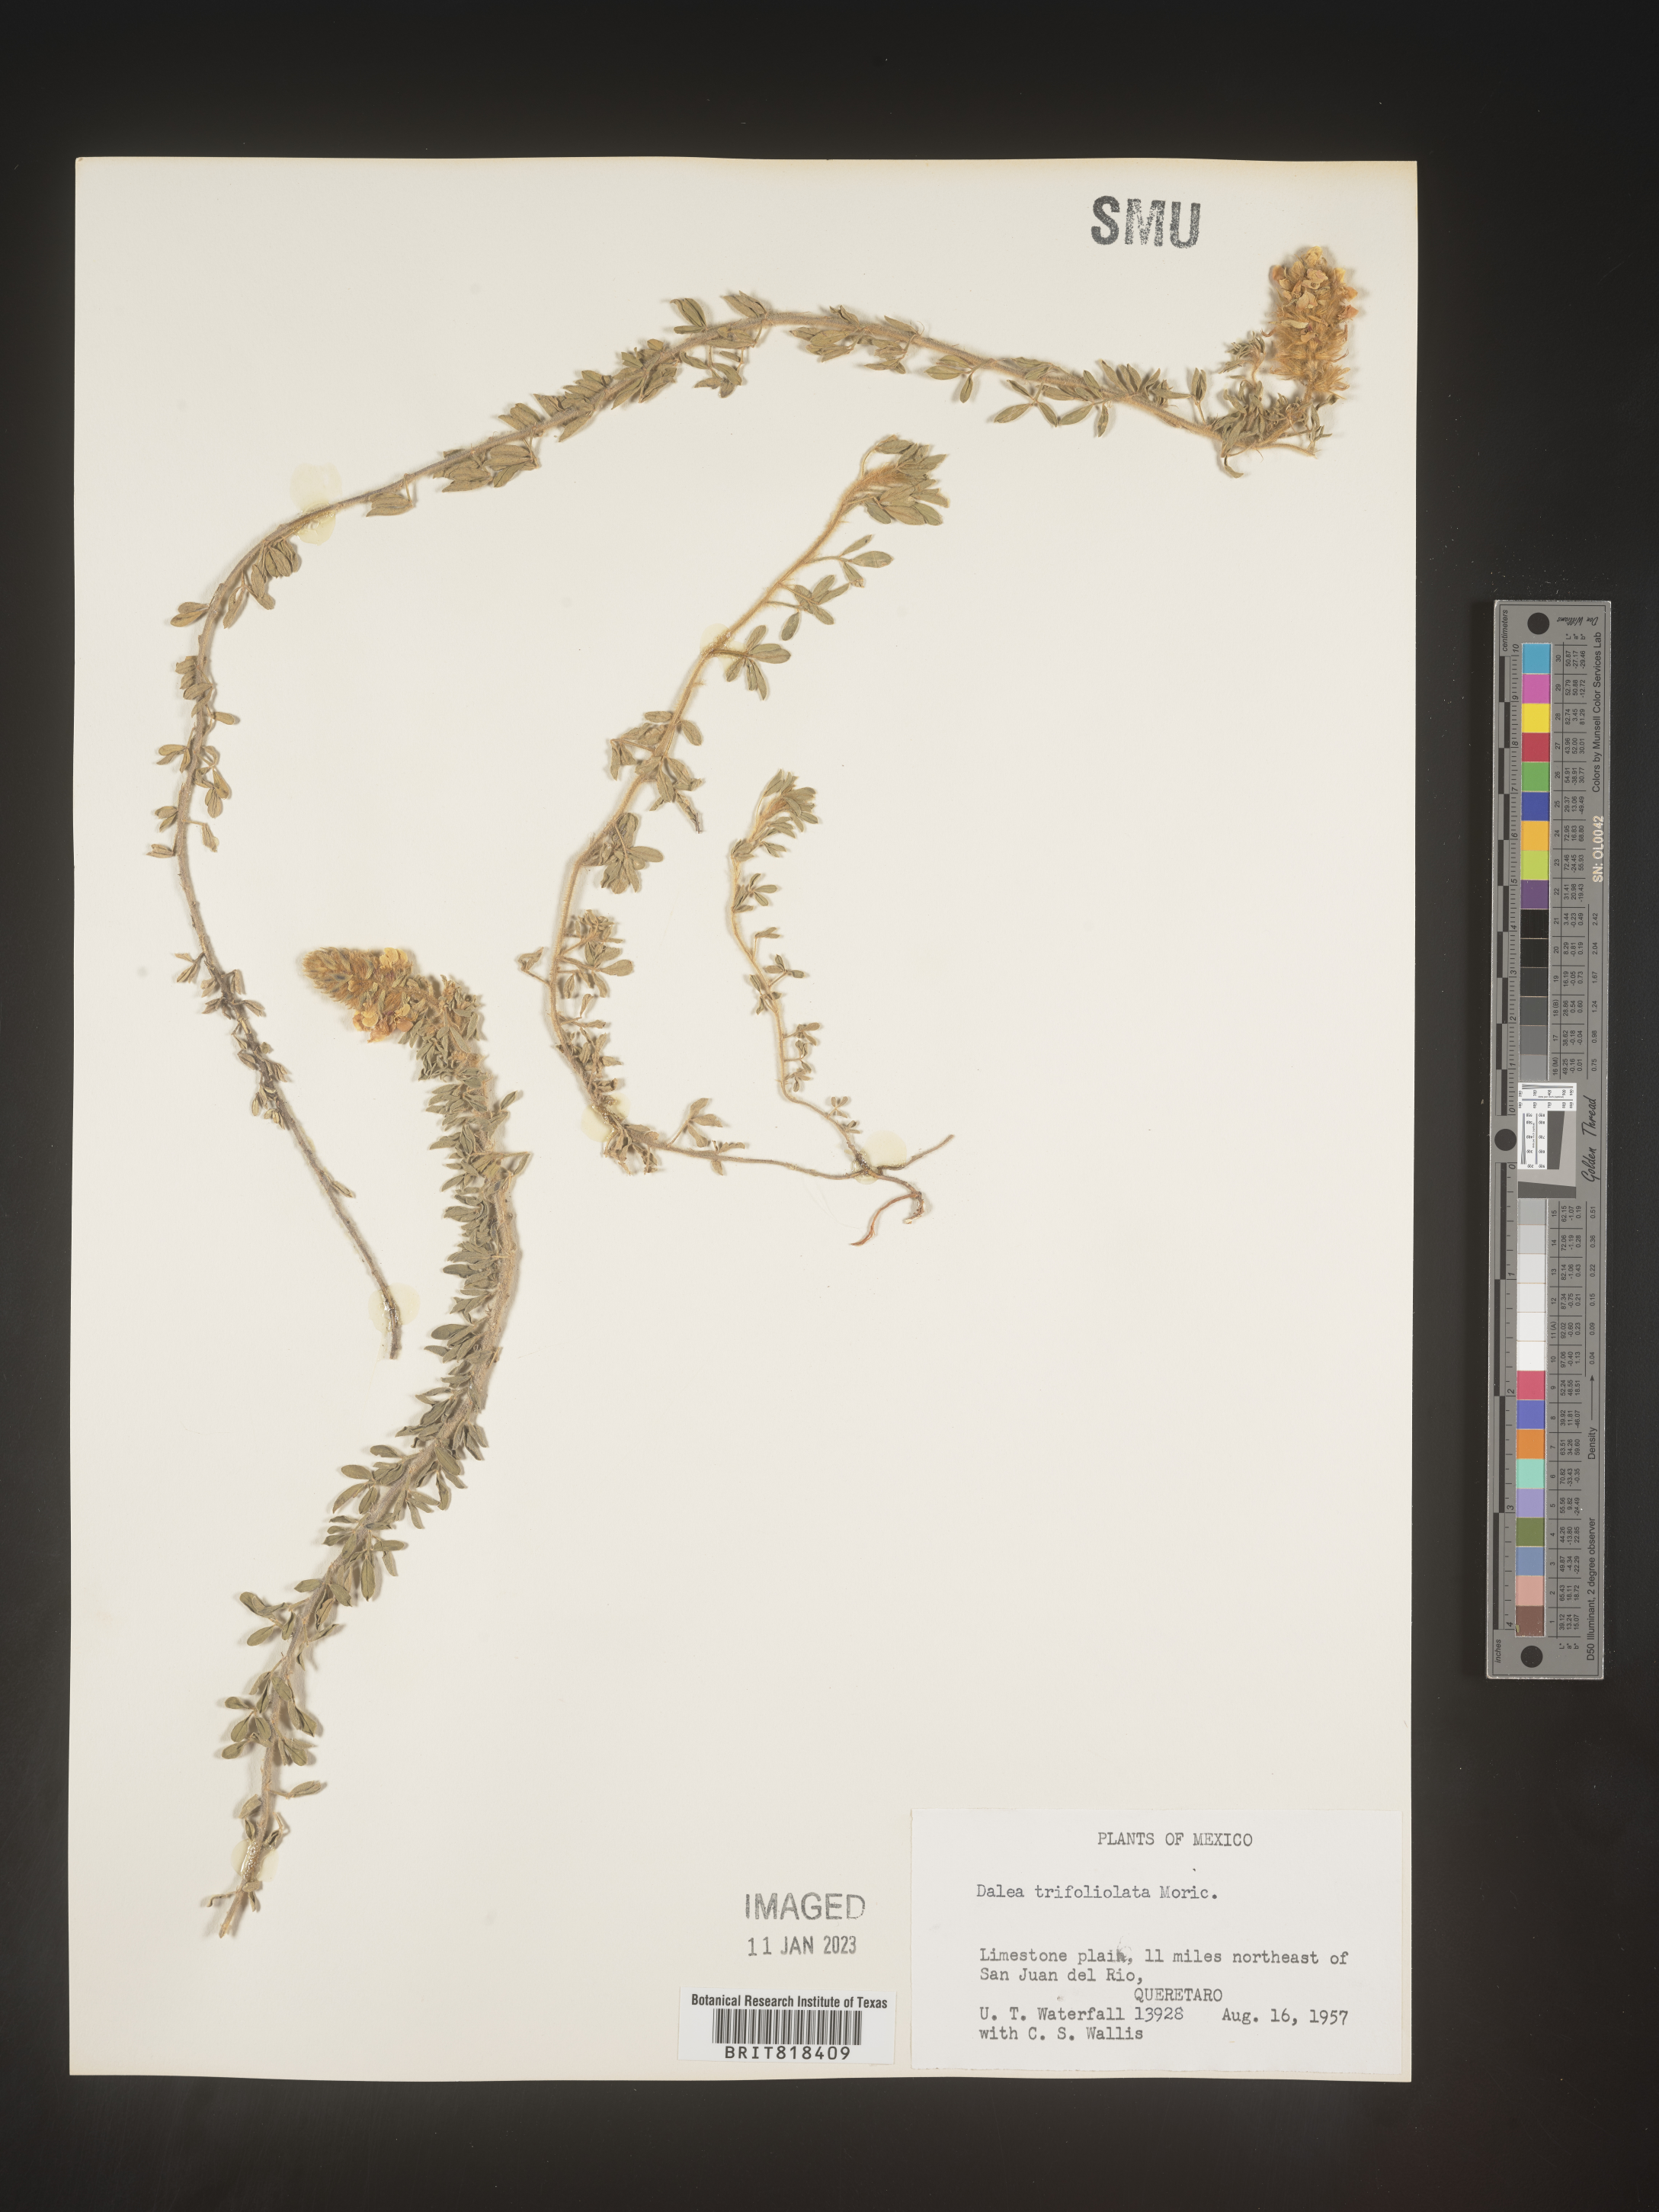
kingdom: Plantae
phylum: Tracheophyta
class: Magnoliopsida
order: Fabales
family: Fabaceae
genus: Dalea
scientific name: Dalea
